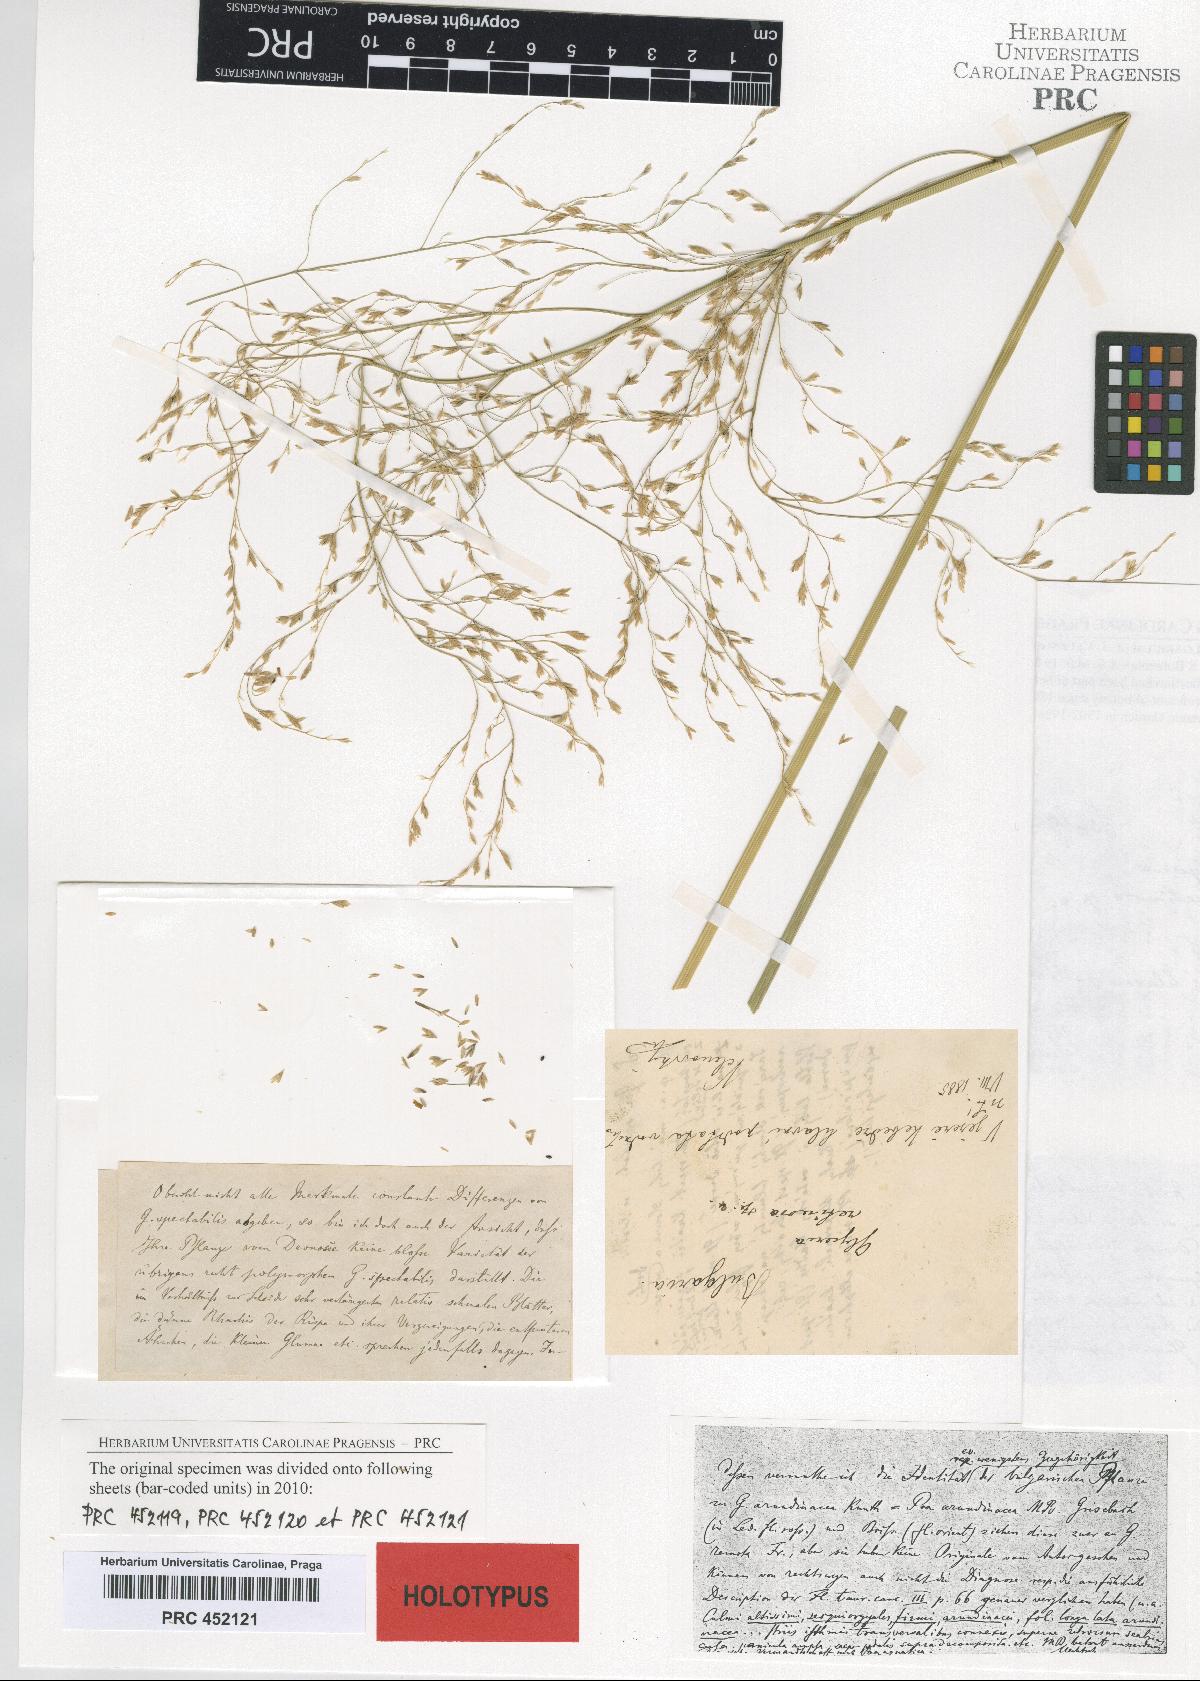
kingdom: Plantae
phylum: Tracheophyta
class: Liliopsida
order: Poales
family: Poaceae
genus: Glyceria
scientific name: Glyceria arundinacea
